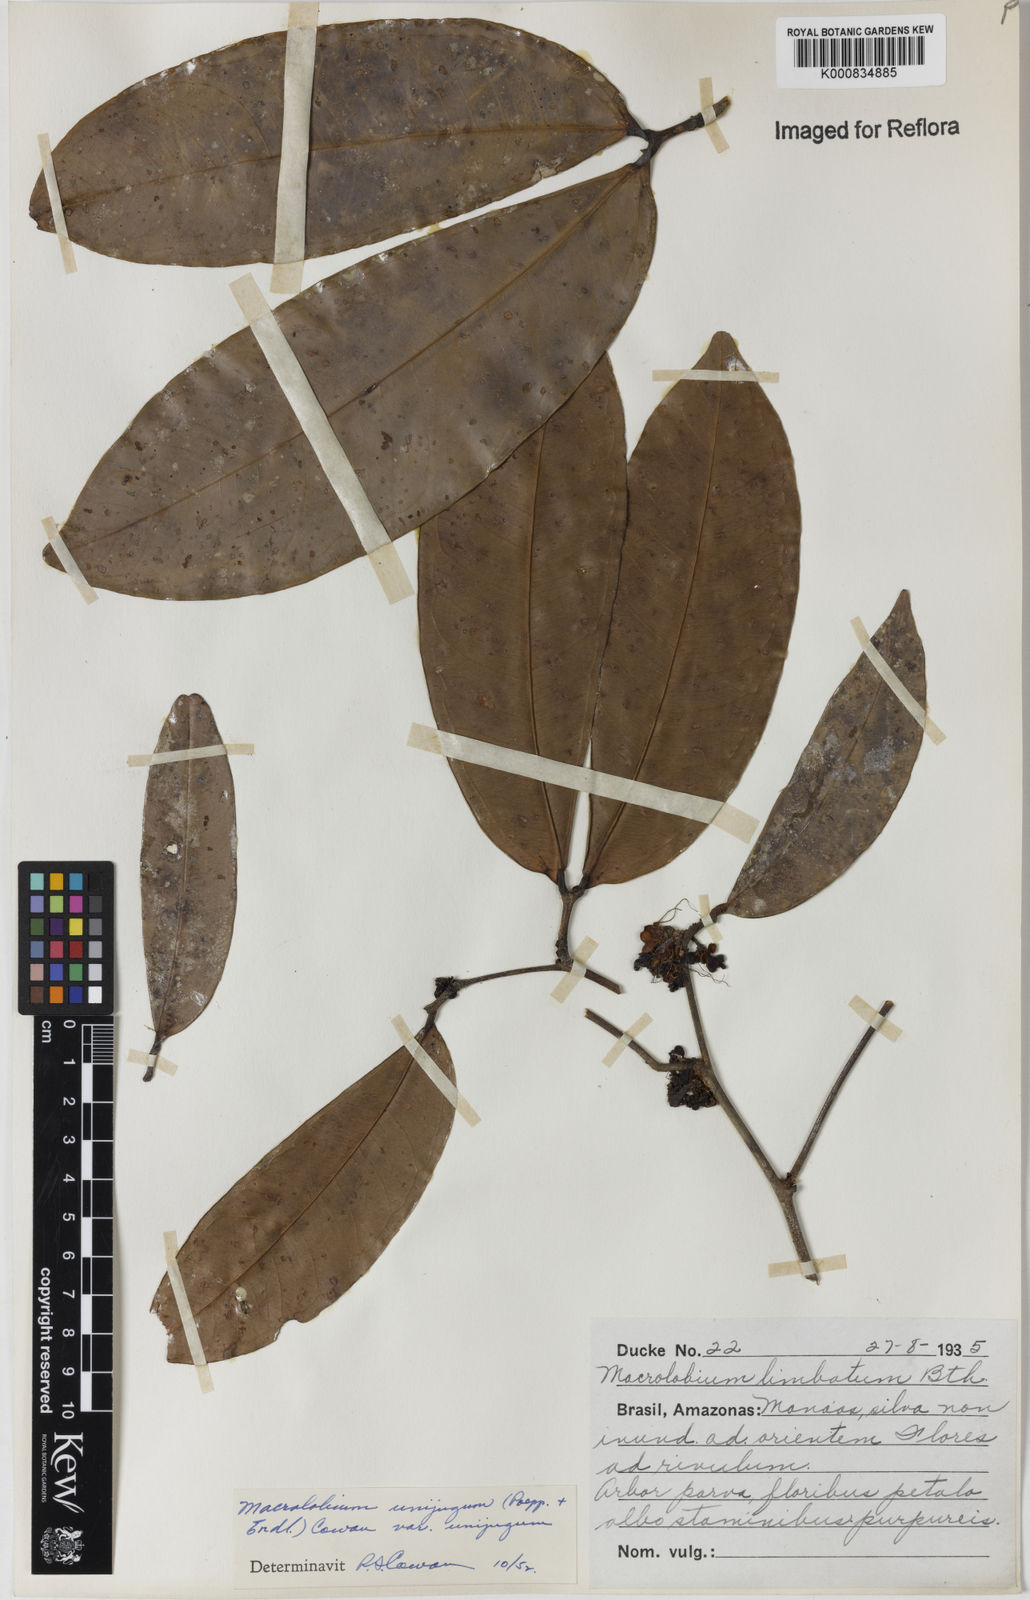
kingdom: Plantae
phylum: Tracheophyta
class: Magnoliopsida
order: Fabales
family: Fabaceae
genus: Macrolobium
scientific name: Macrolobium limbatum
